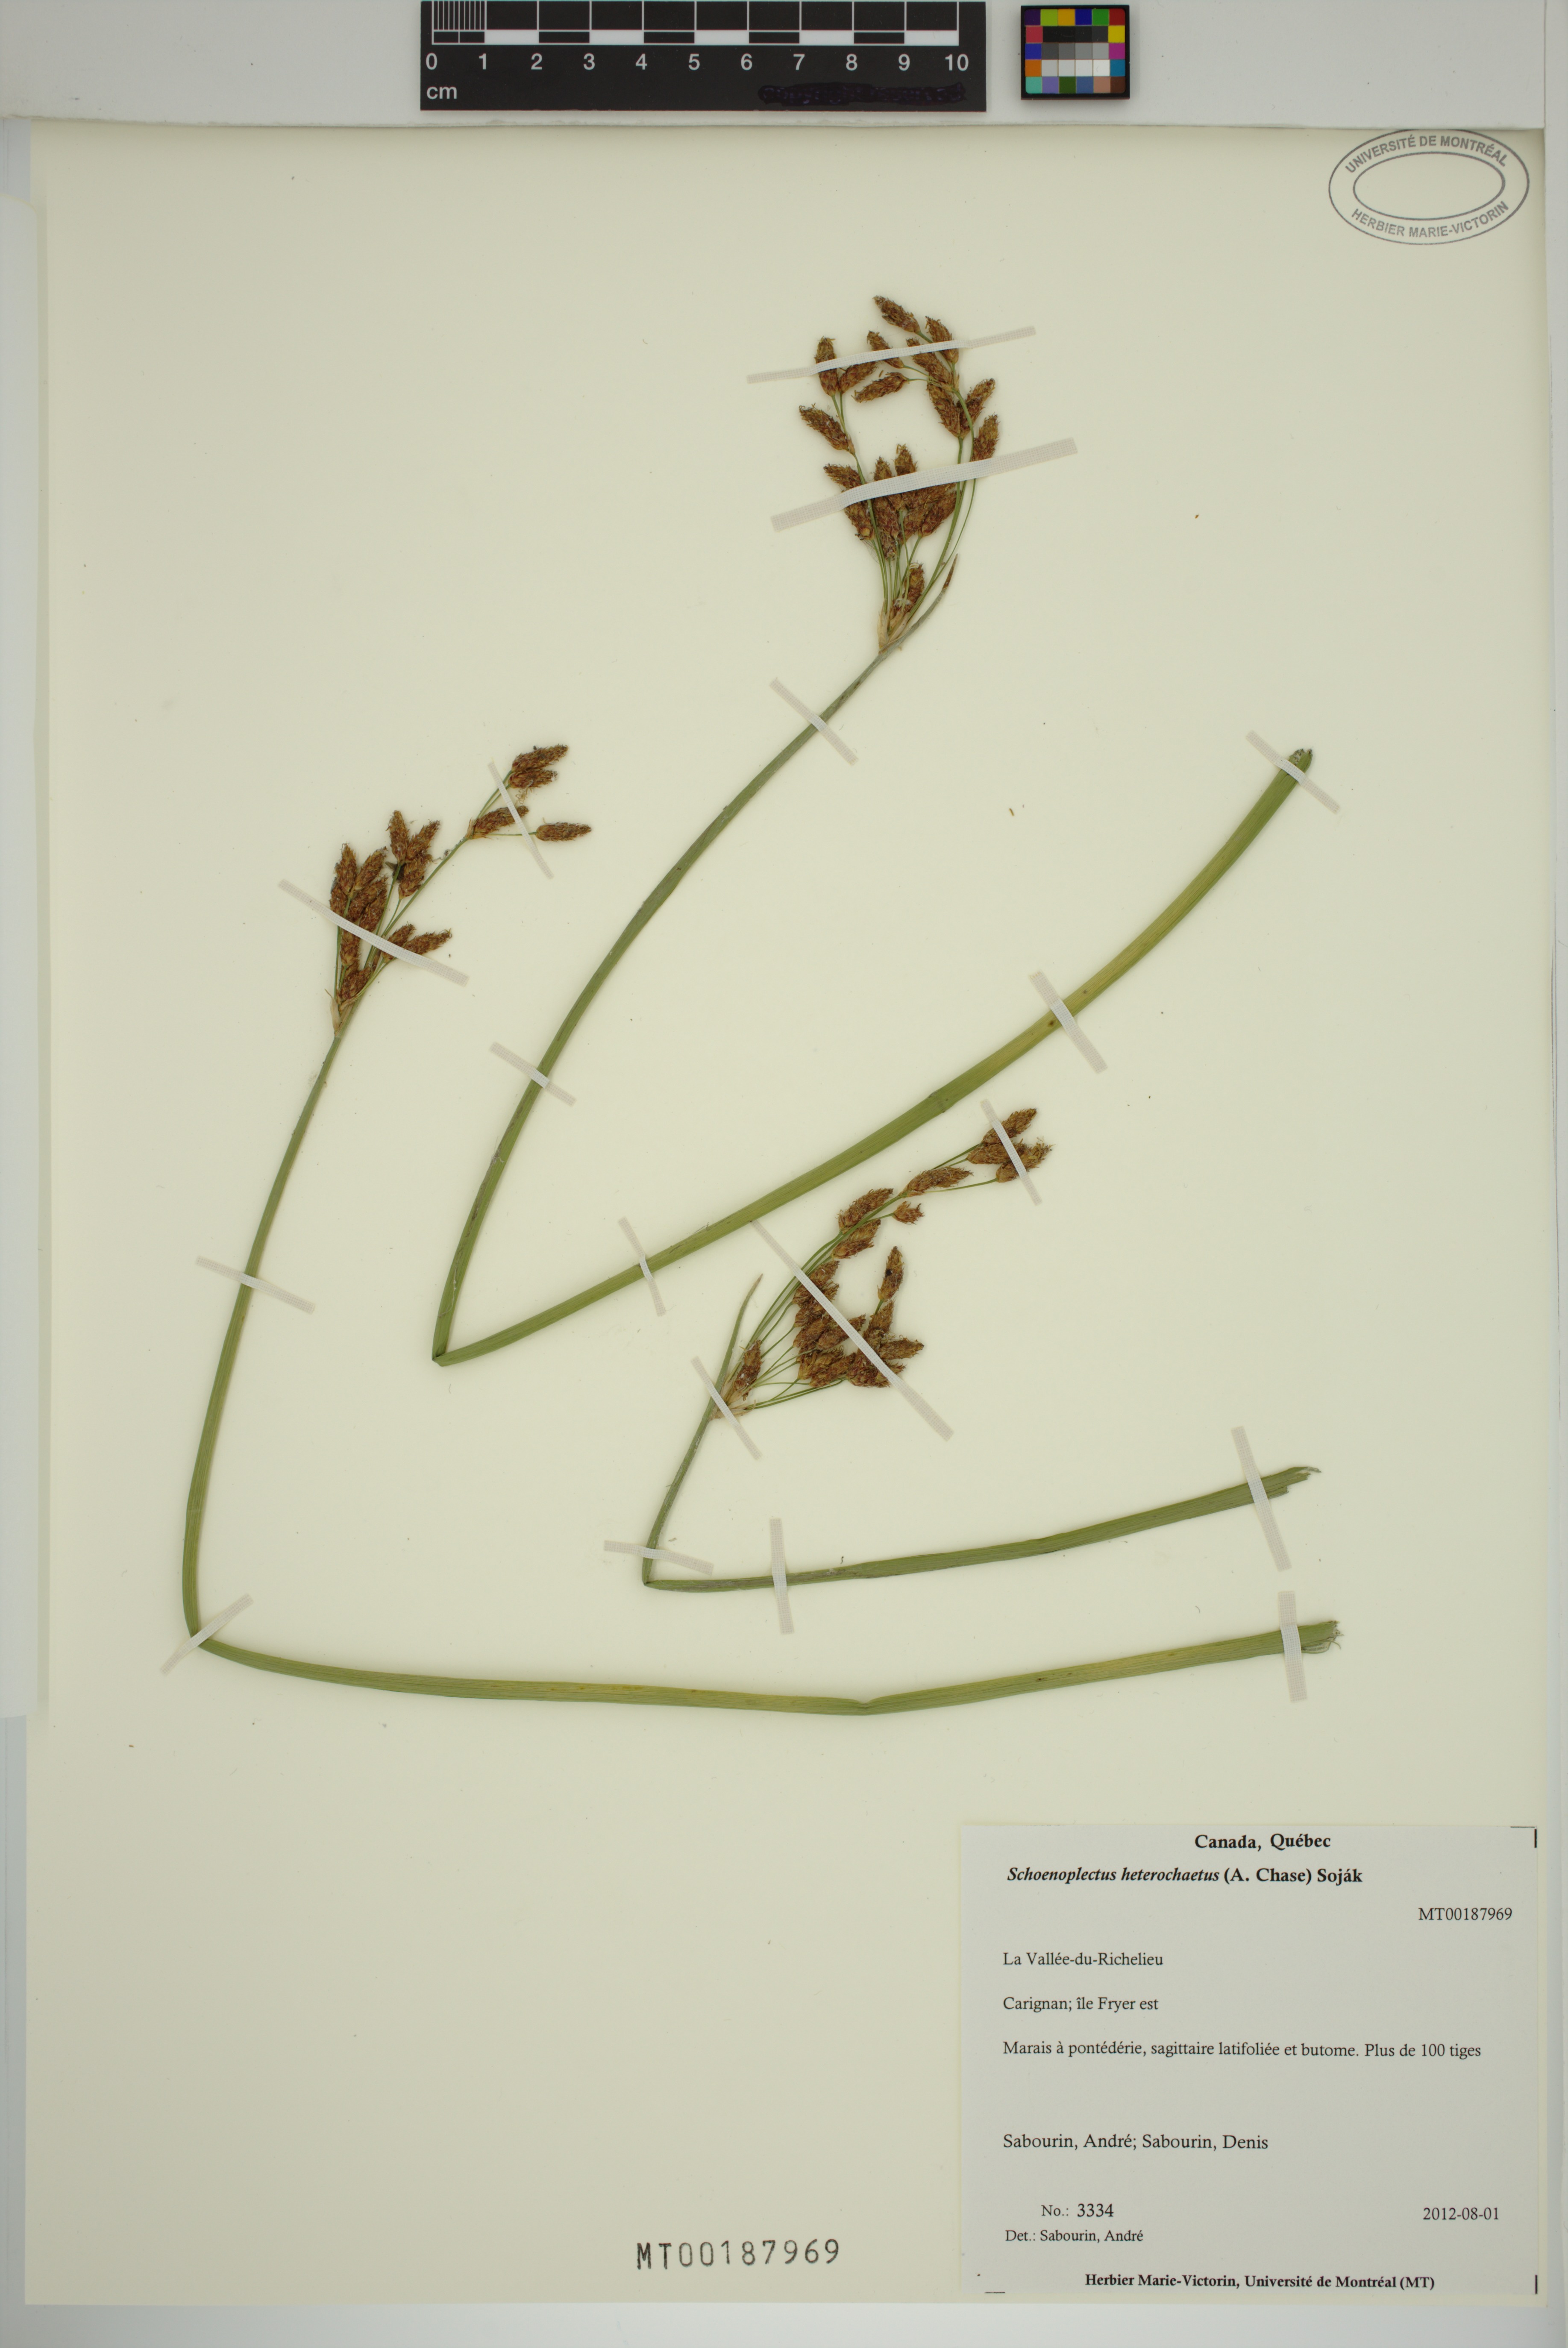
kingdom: Plantae
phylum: Tracheophyta
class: Liliopsida
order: Poales
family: Cyperaceae
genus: Schoenoplectus
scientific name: Schoenoplectus heterochaetus
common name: Pale great bulrush
